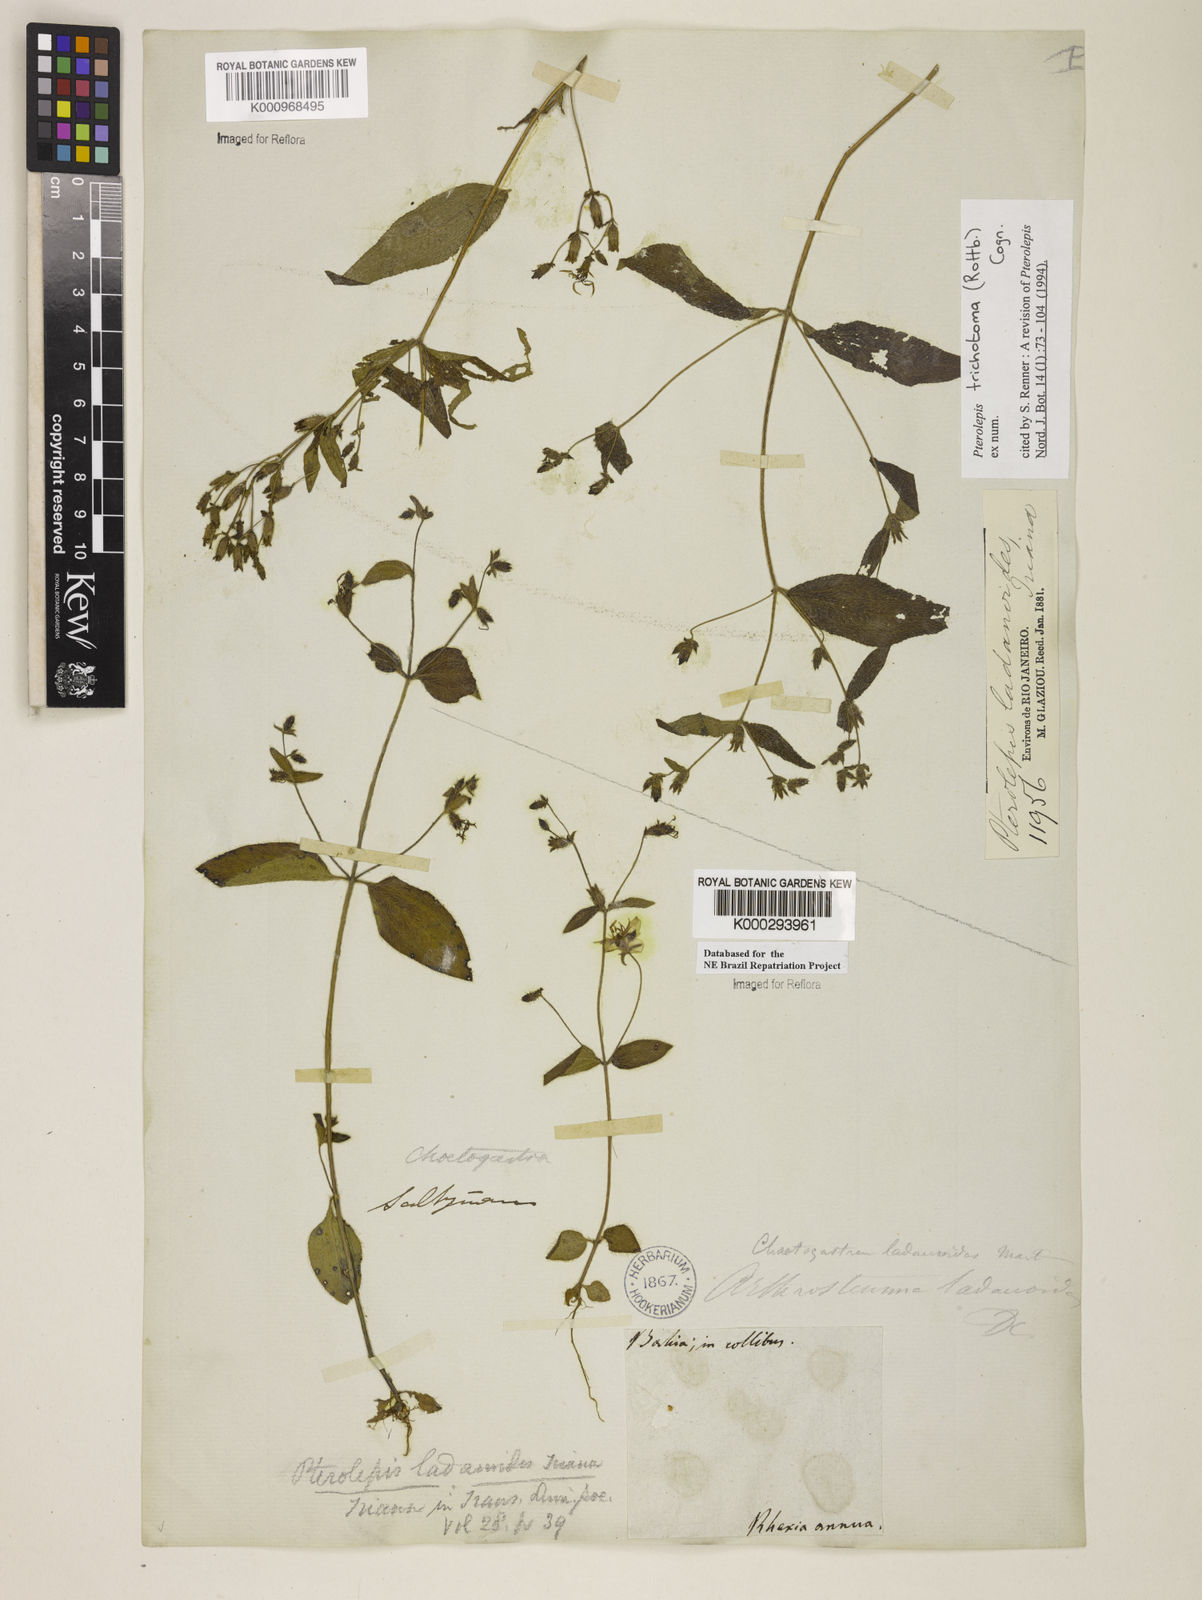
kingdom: Plantae
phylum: Tracheophyta
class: Magnoliopsida
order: Myrtales
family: Melastomataceae
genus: Pterolepis
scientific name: Pterolepis trichotoma
